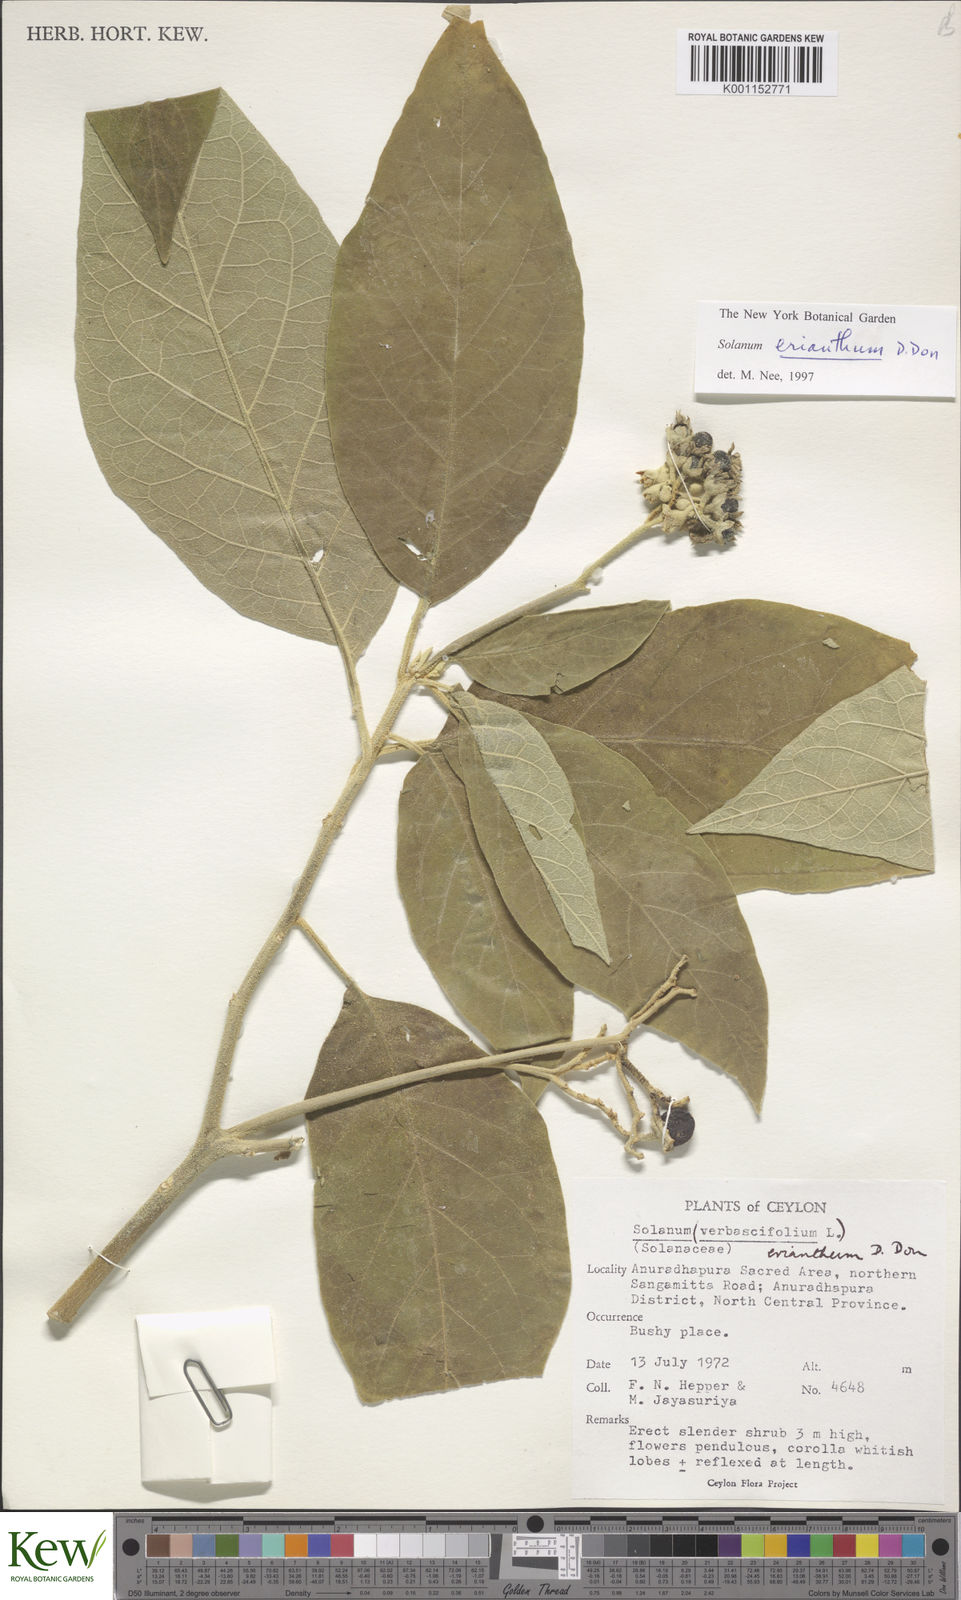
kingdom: Plantae
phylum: Tracheophyta
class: Magnoliopsida
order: Solanales
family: Solanaceae
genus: Solanum
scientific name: Solanum erianthum
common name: Tobacco-tree
